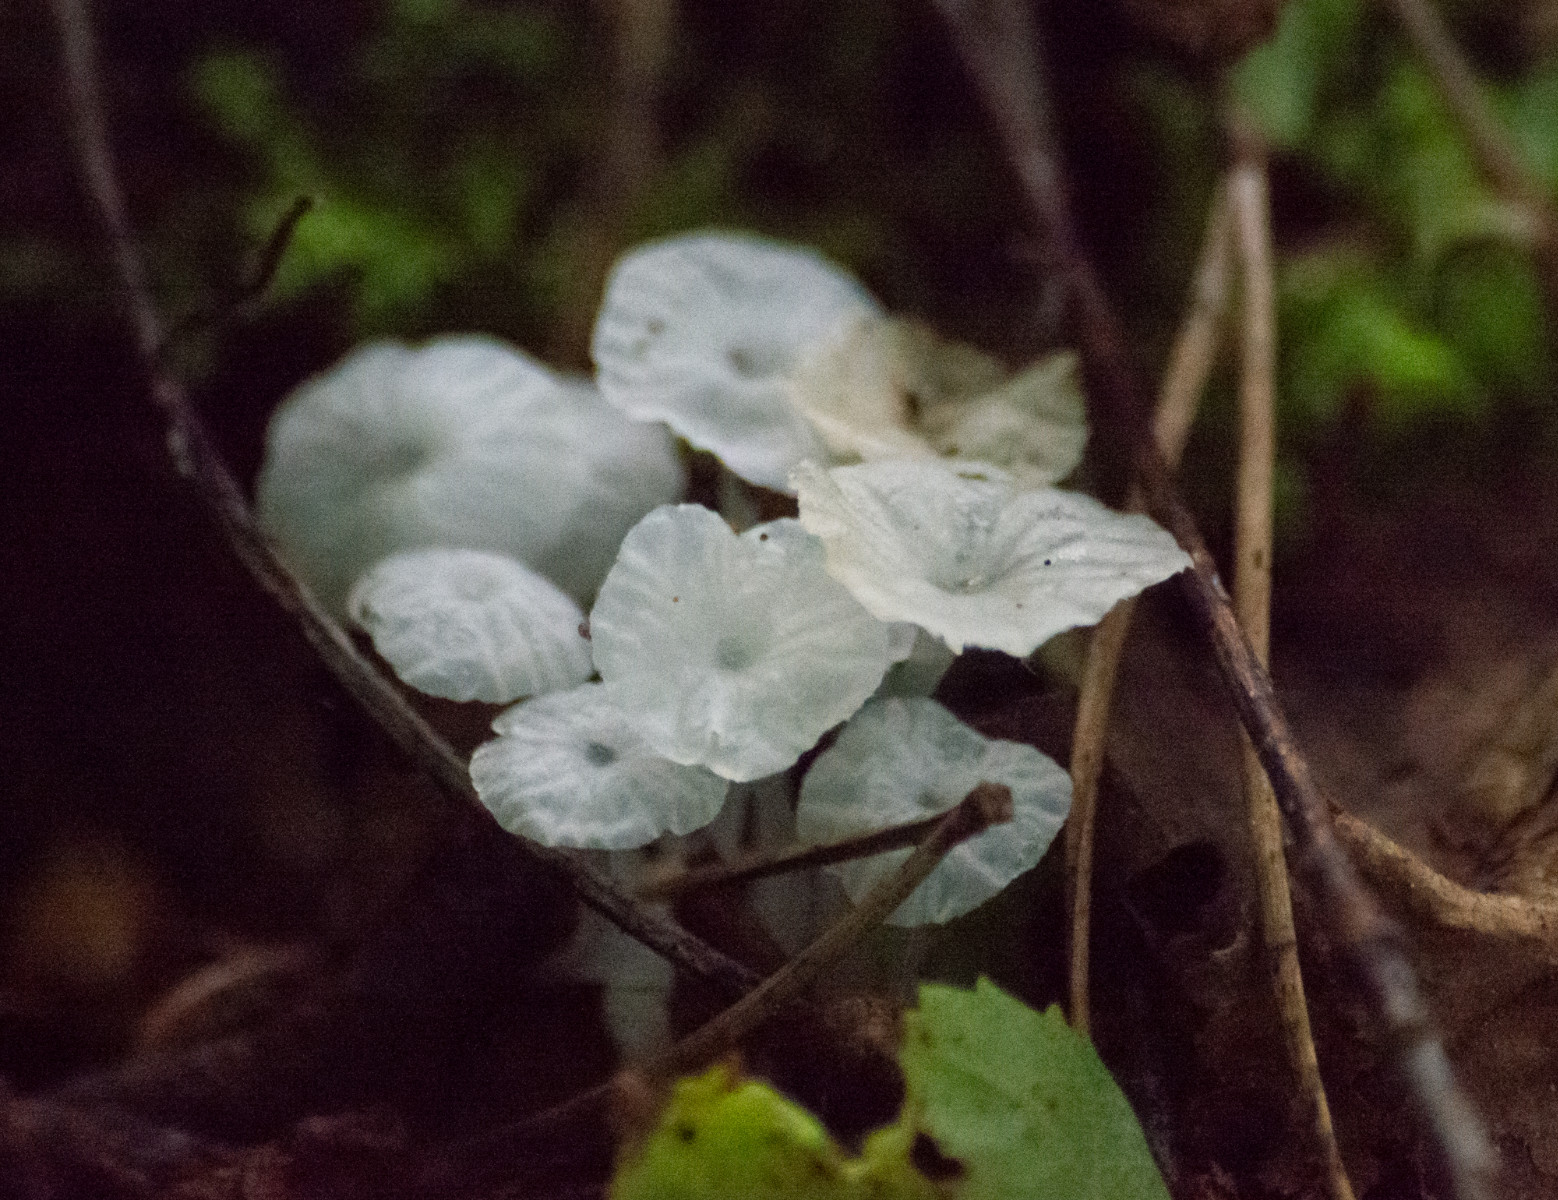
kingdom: Fungi
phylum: Basidiomycota
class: Agaricomycetes
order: Agaricales
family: Tricholomataceae
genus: Delicatula
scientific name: Delicatula integrella
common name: slørhuesvamp
